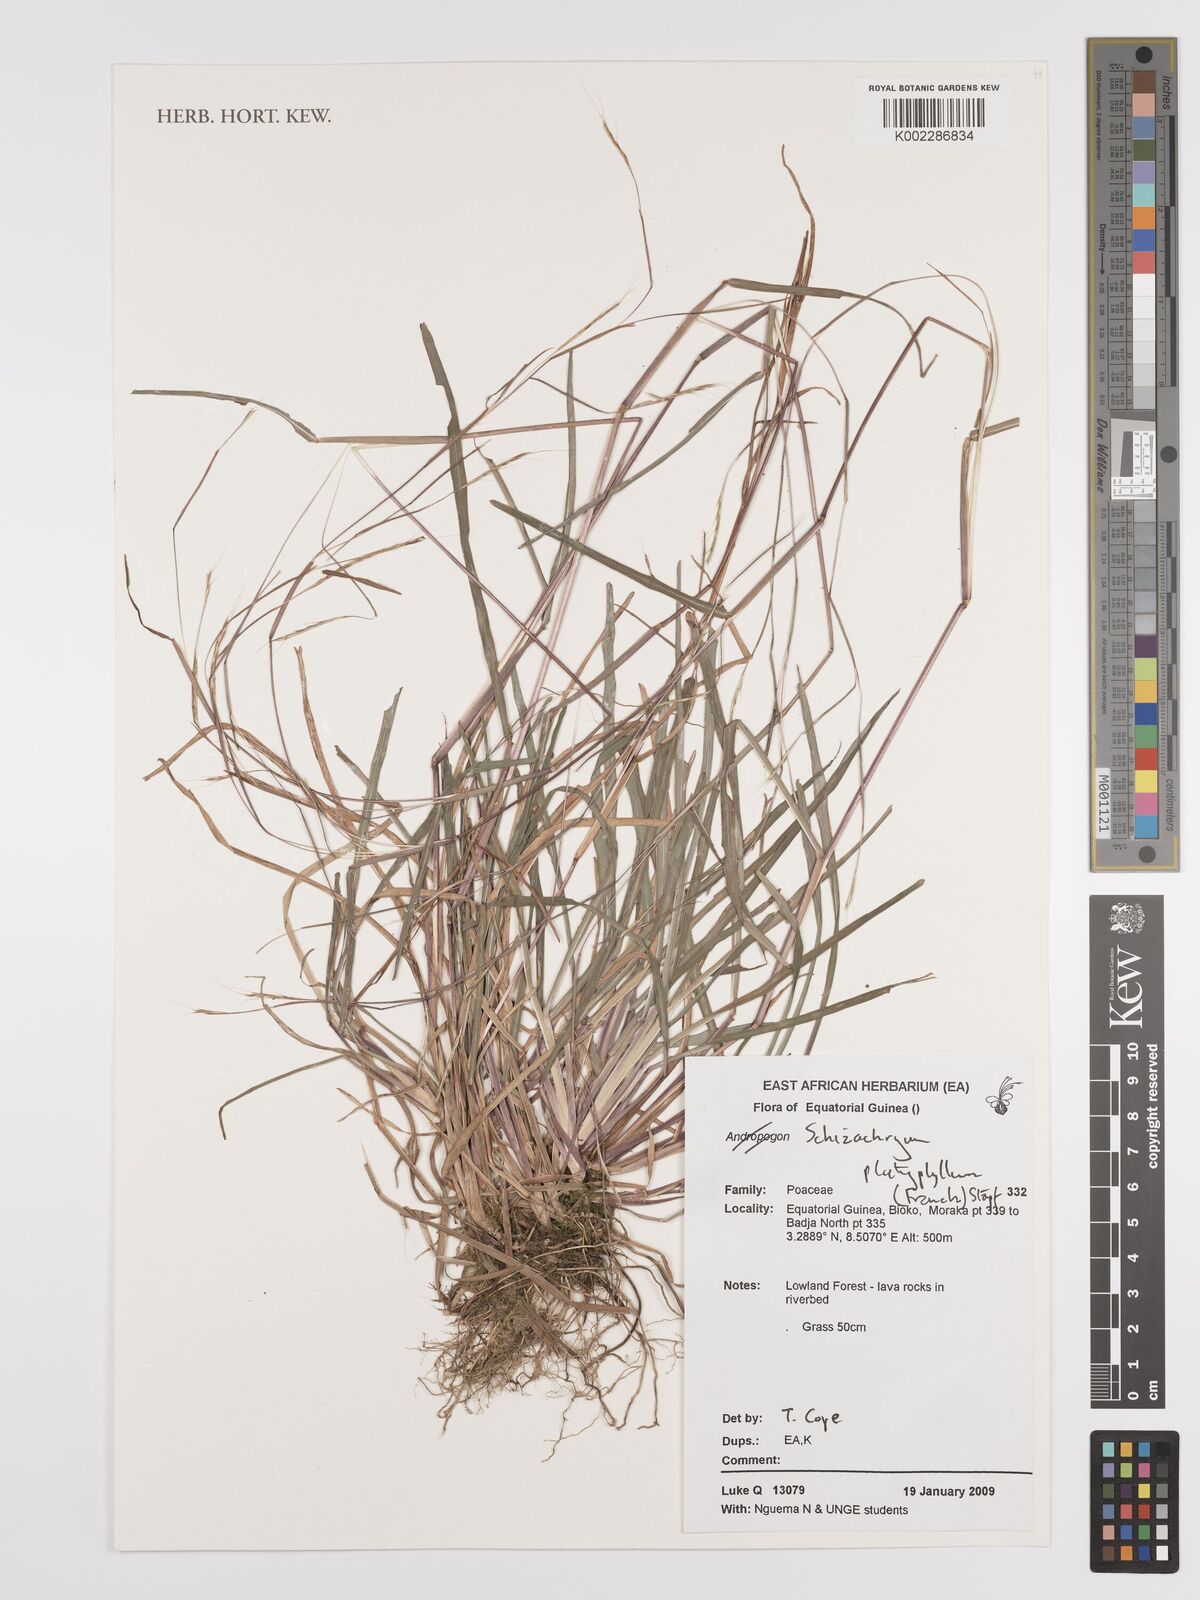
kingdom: Plantae
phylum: Tracheophyta
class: Liliopsida
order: Poales
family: Poaceae
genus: Schizachyrium
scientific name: Schizachyrium platyphyllum
